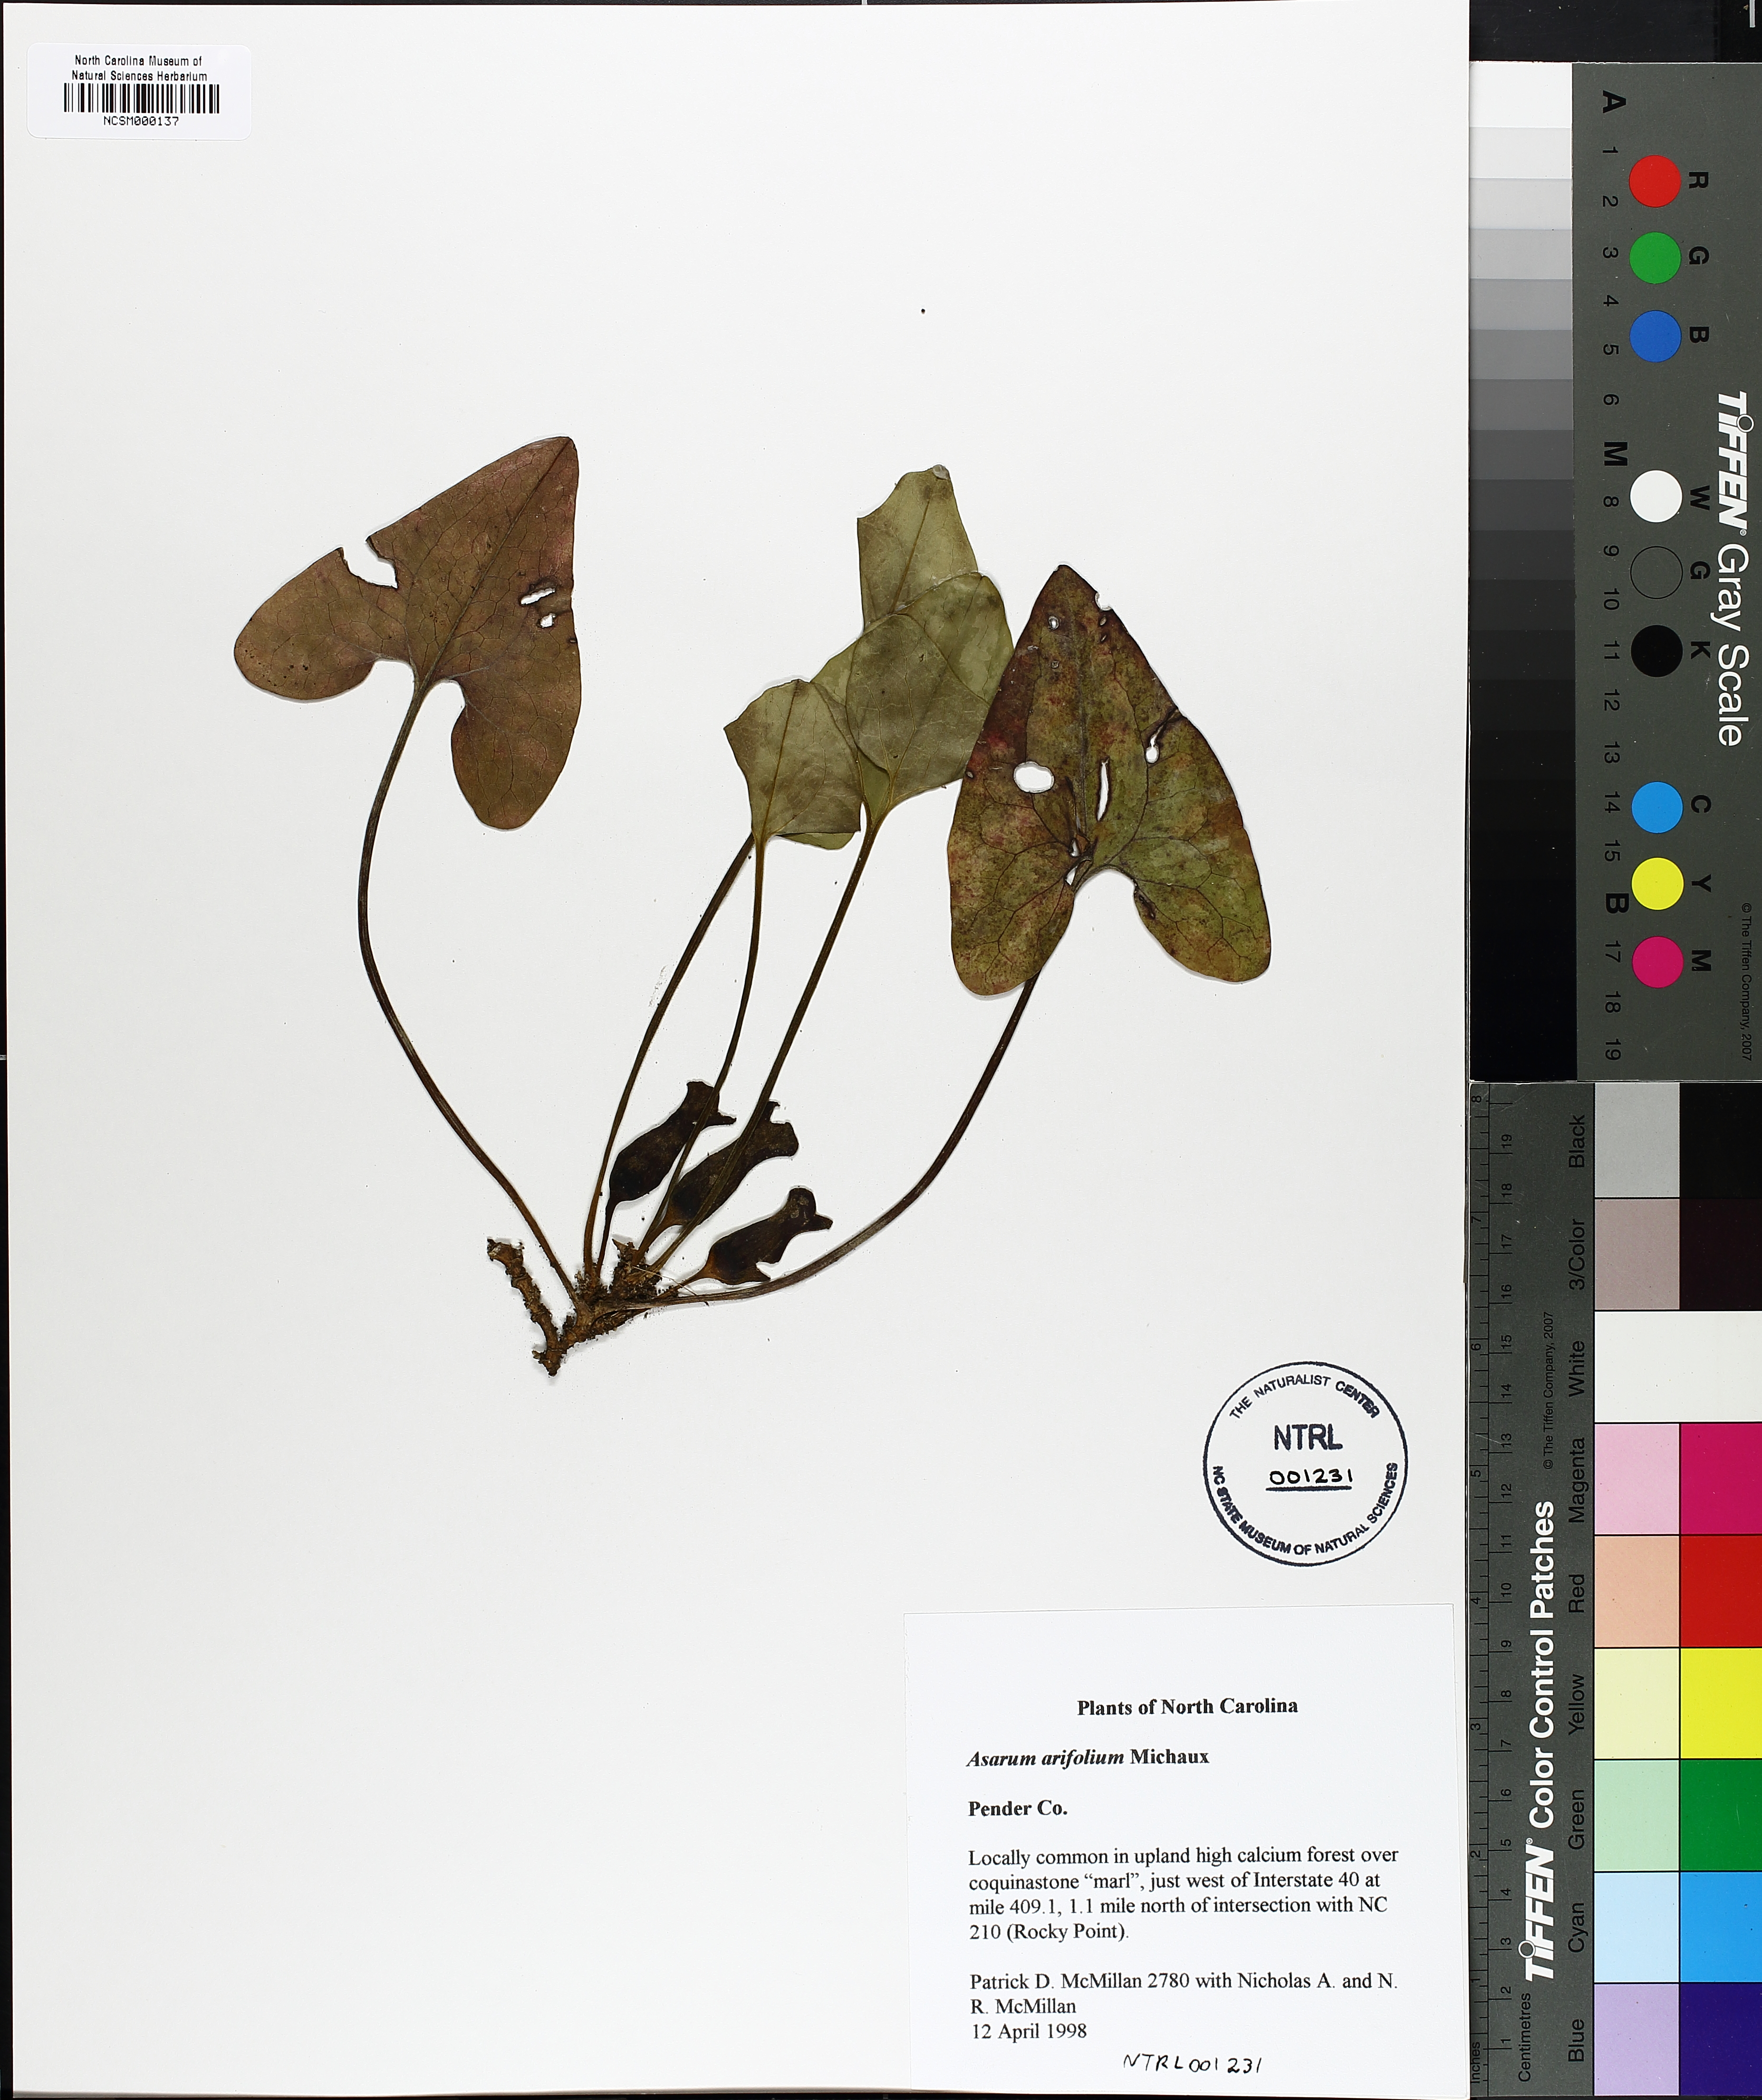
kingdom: Plantae
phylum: Tracheophyta
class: Magnoliopsida
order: Piperales
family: Aristolochiaceae
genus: Hexastylis
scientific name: Hexastylis arifolia
